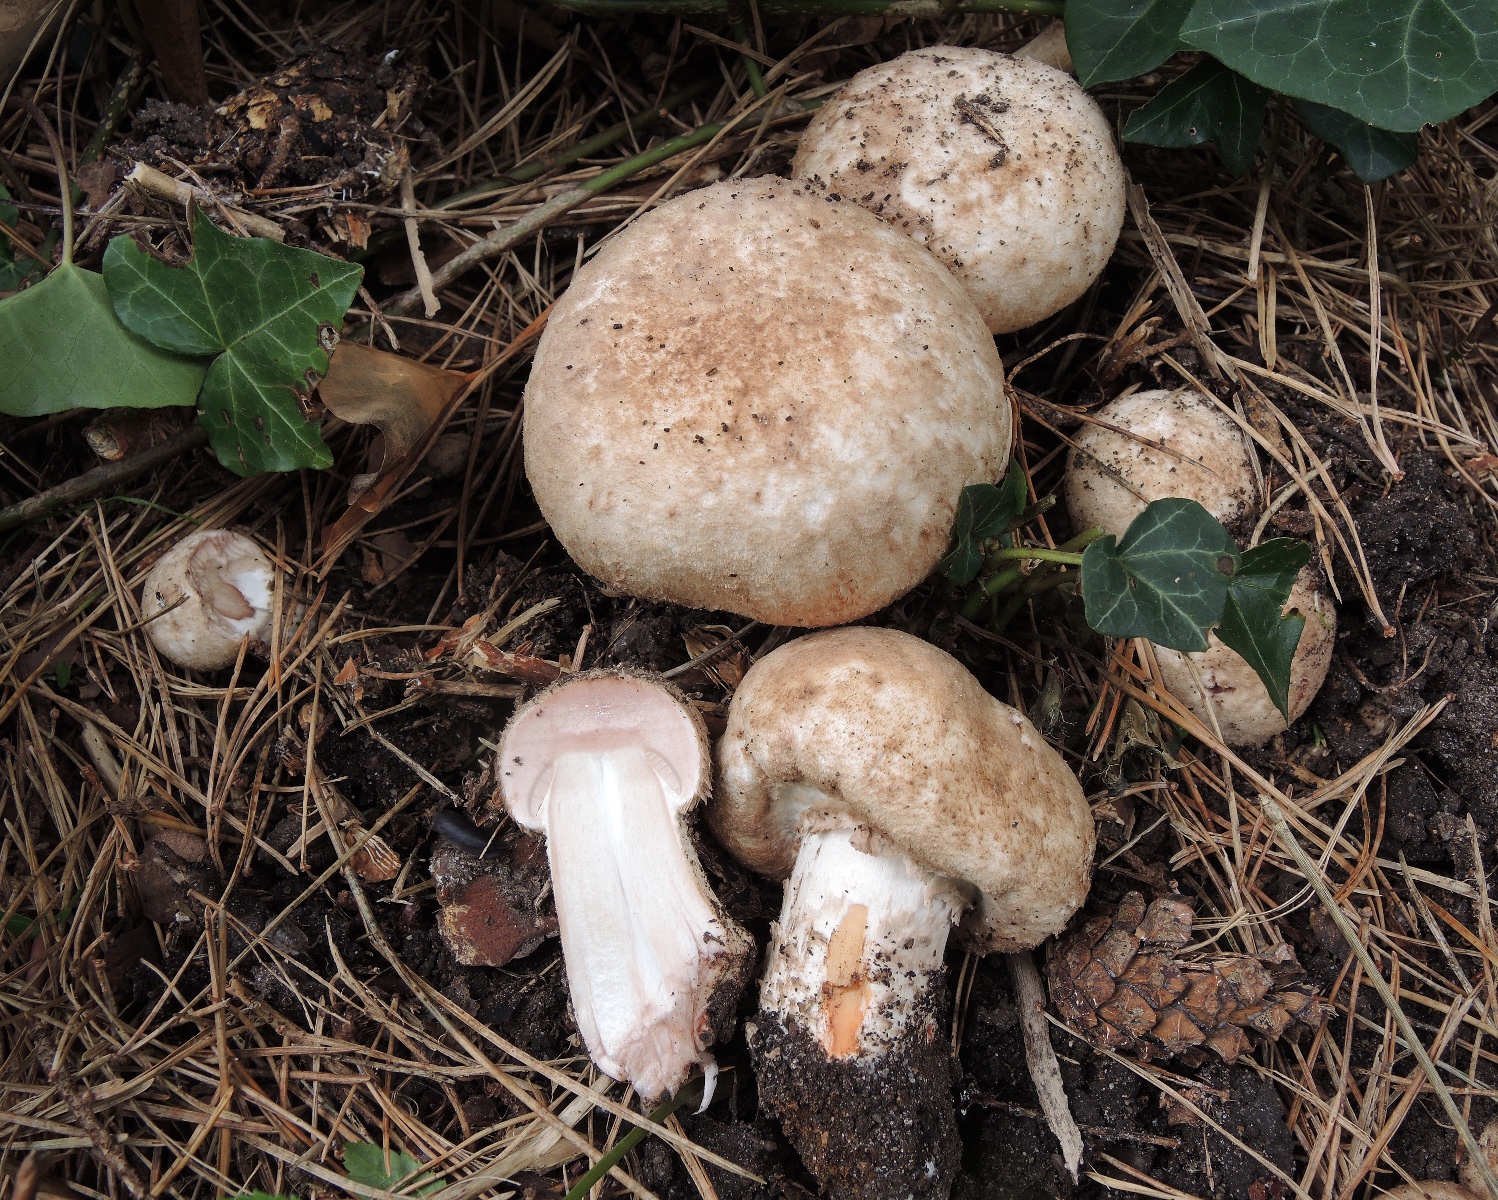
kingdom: Fungi
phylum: Basidiomycota
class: Agaricomycetes
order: Agaricales
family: Agaricaceae
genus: Agaricus
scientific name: Agaricus coniferarum
